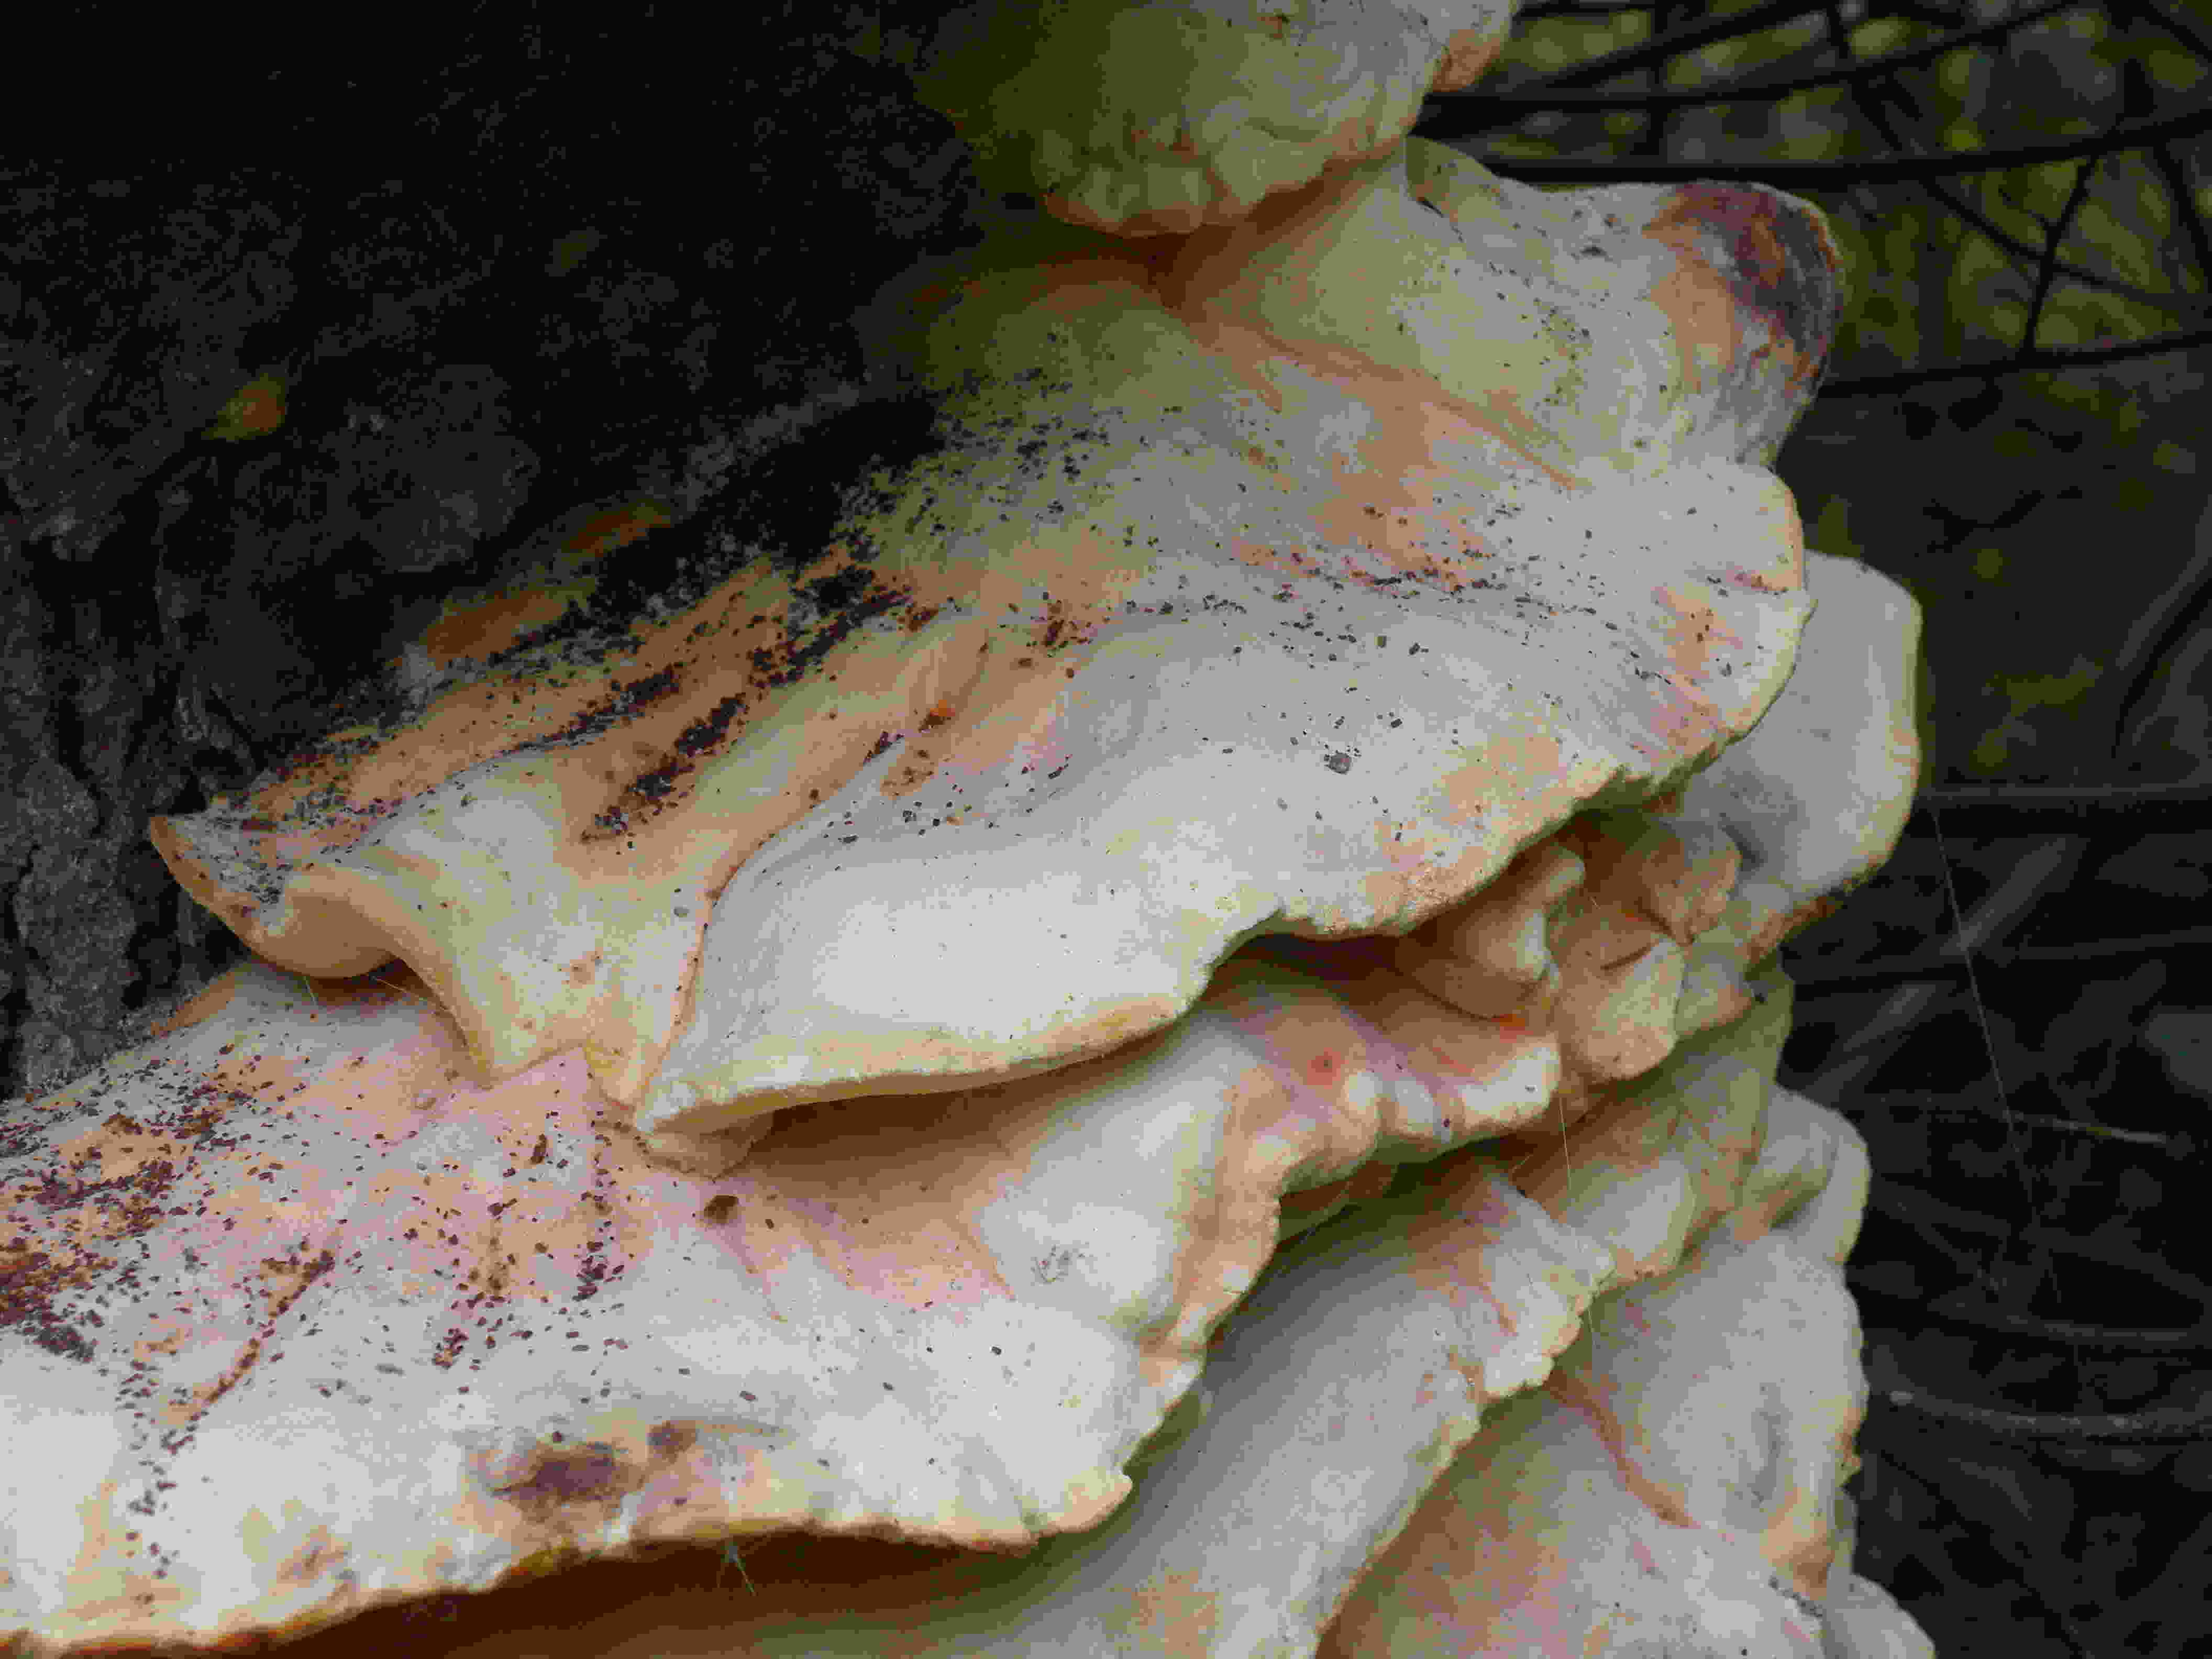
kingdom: Fungi
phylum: Basidiomycota
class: Agaricomycetes
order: Polyporales
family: Laetiporaceae
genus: Laetiporus
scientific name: Laetiporus sulphureus
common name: svovlporesvamp
